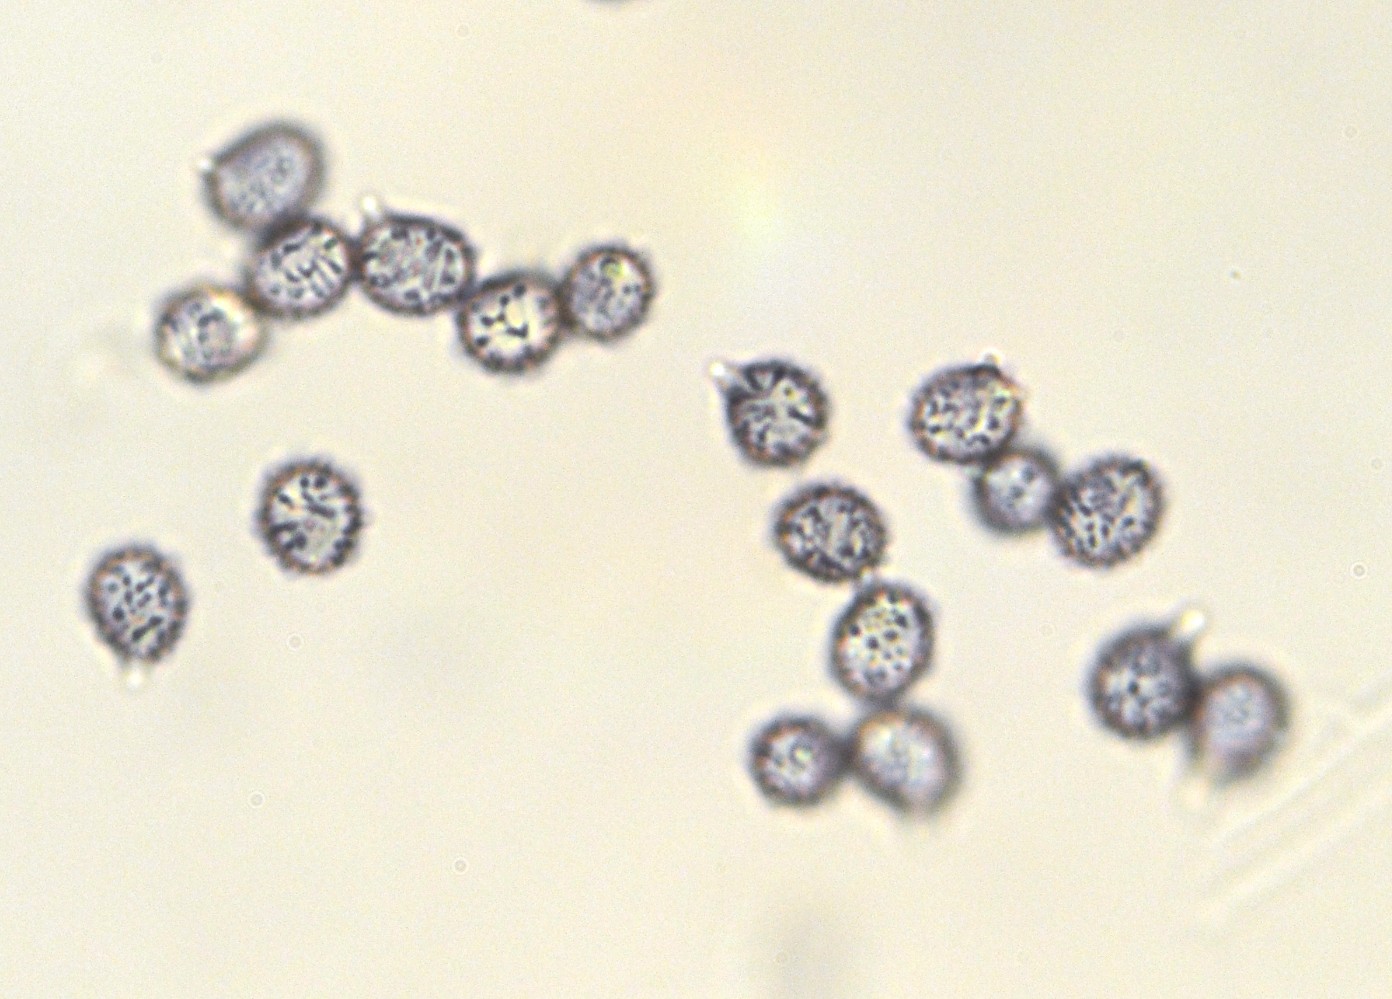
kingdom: Fungi
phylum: Basidiomycota
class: Agaricomycetes
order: Russulales
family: Russulaceae
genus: Russula
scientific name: Russula silvestris
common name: mellemstor gift-skørhat
